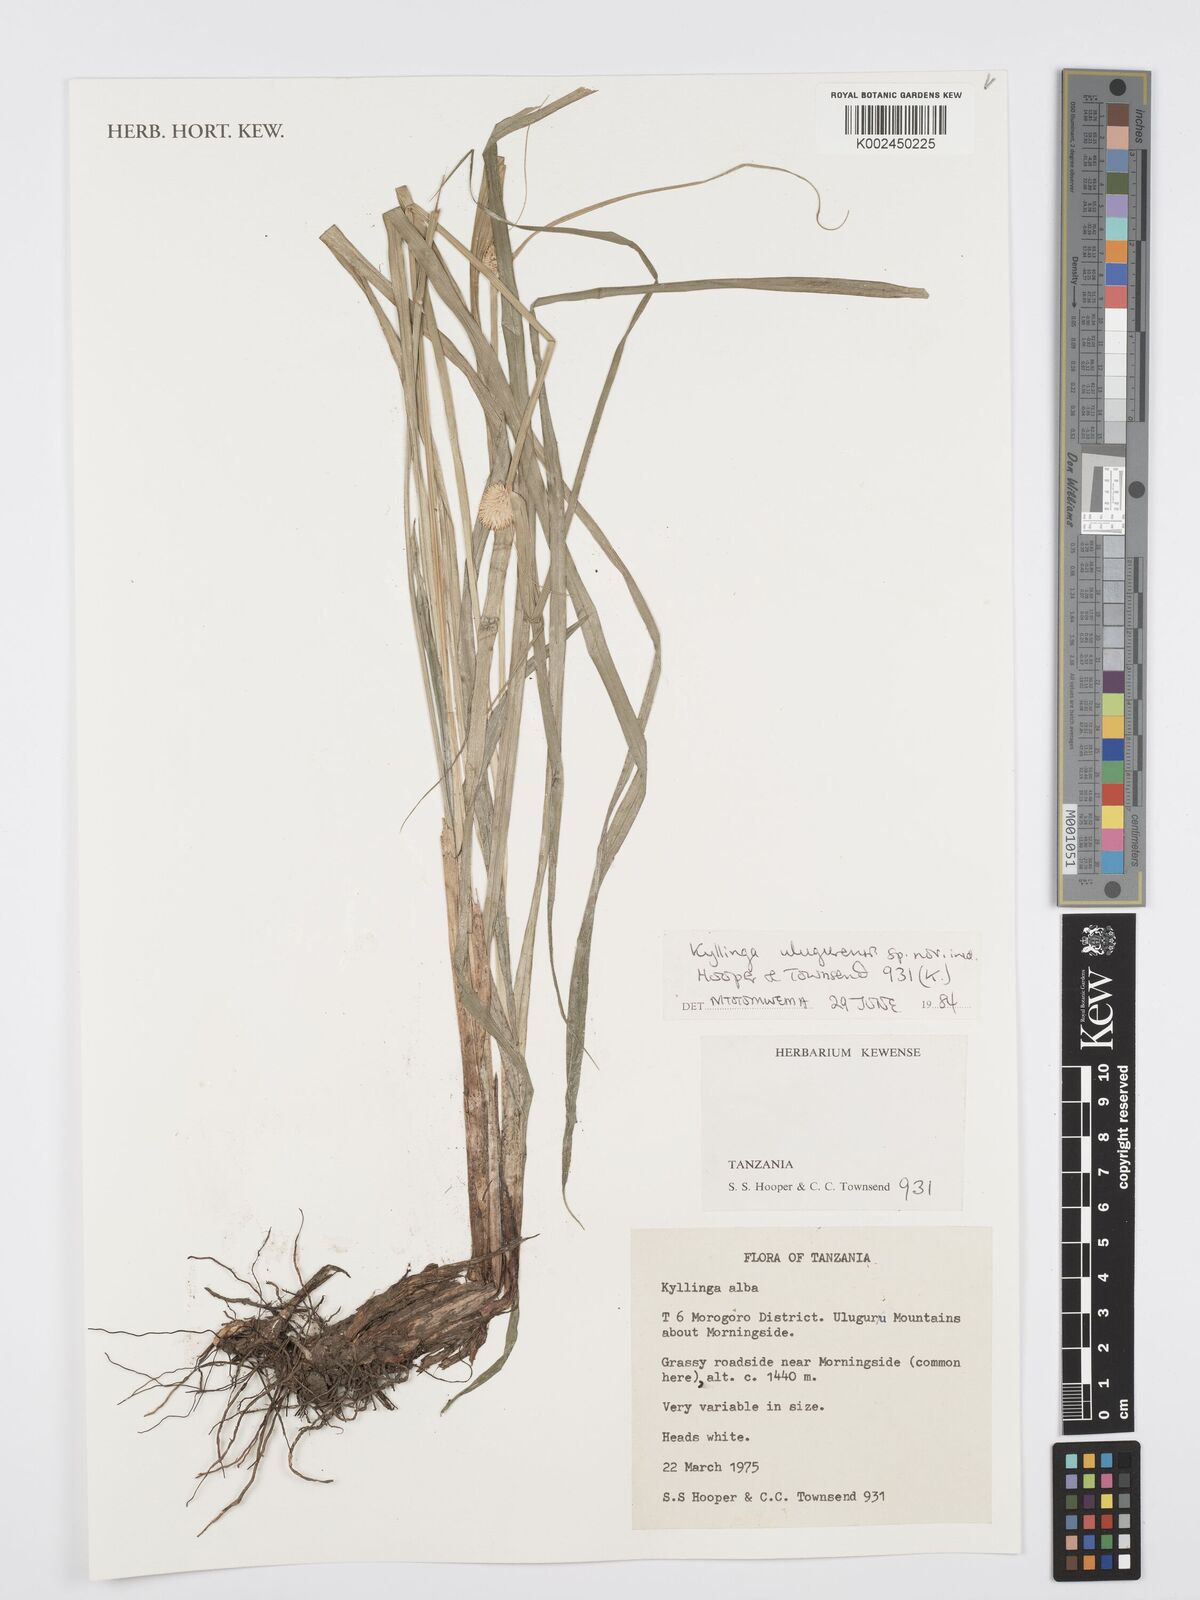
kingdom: Plantae
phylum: Tracheophyta
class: Liliopsida
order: Poales
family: Cyperaceae
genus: Cyperus
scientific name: Cyperus
